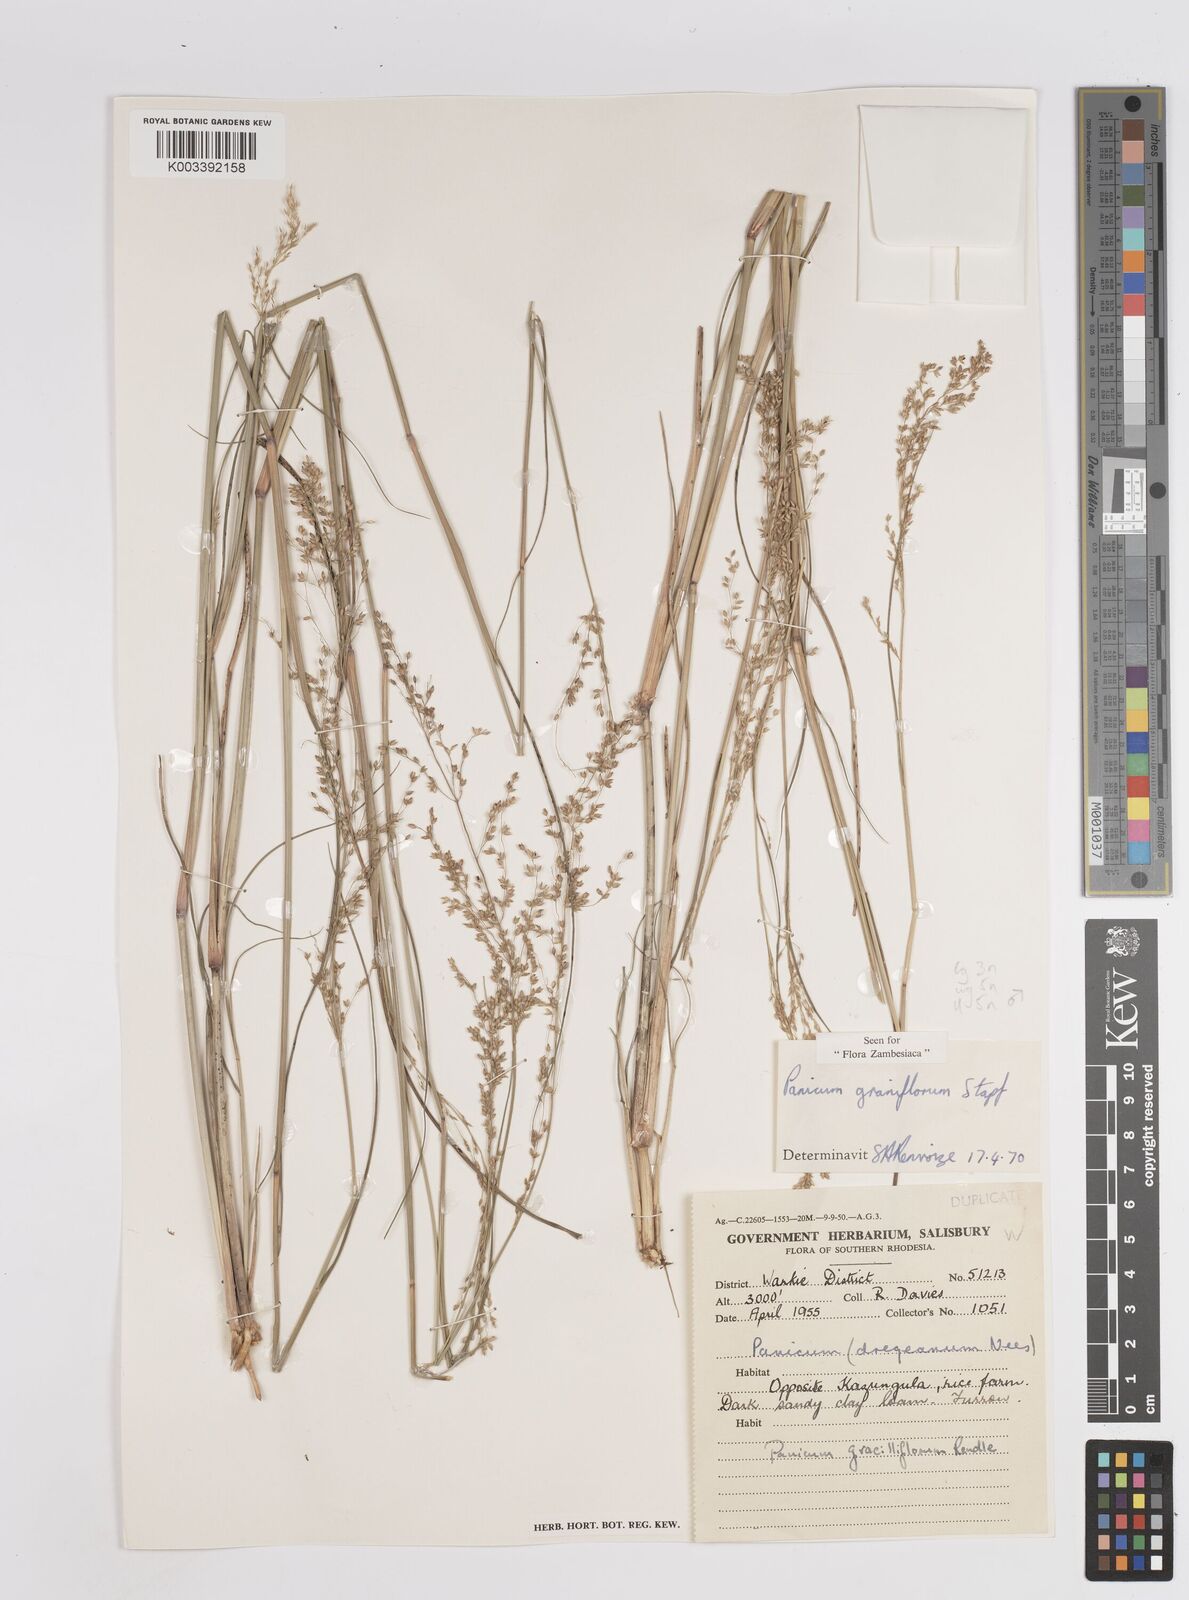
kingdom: Plantae
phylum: Tracheophyta
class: Liliopsida
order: Poales
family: Poaceae
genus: Panicum
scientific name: Panicum graniflorum
